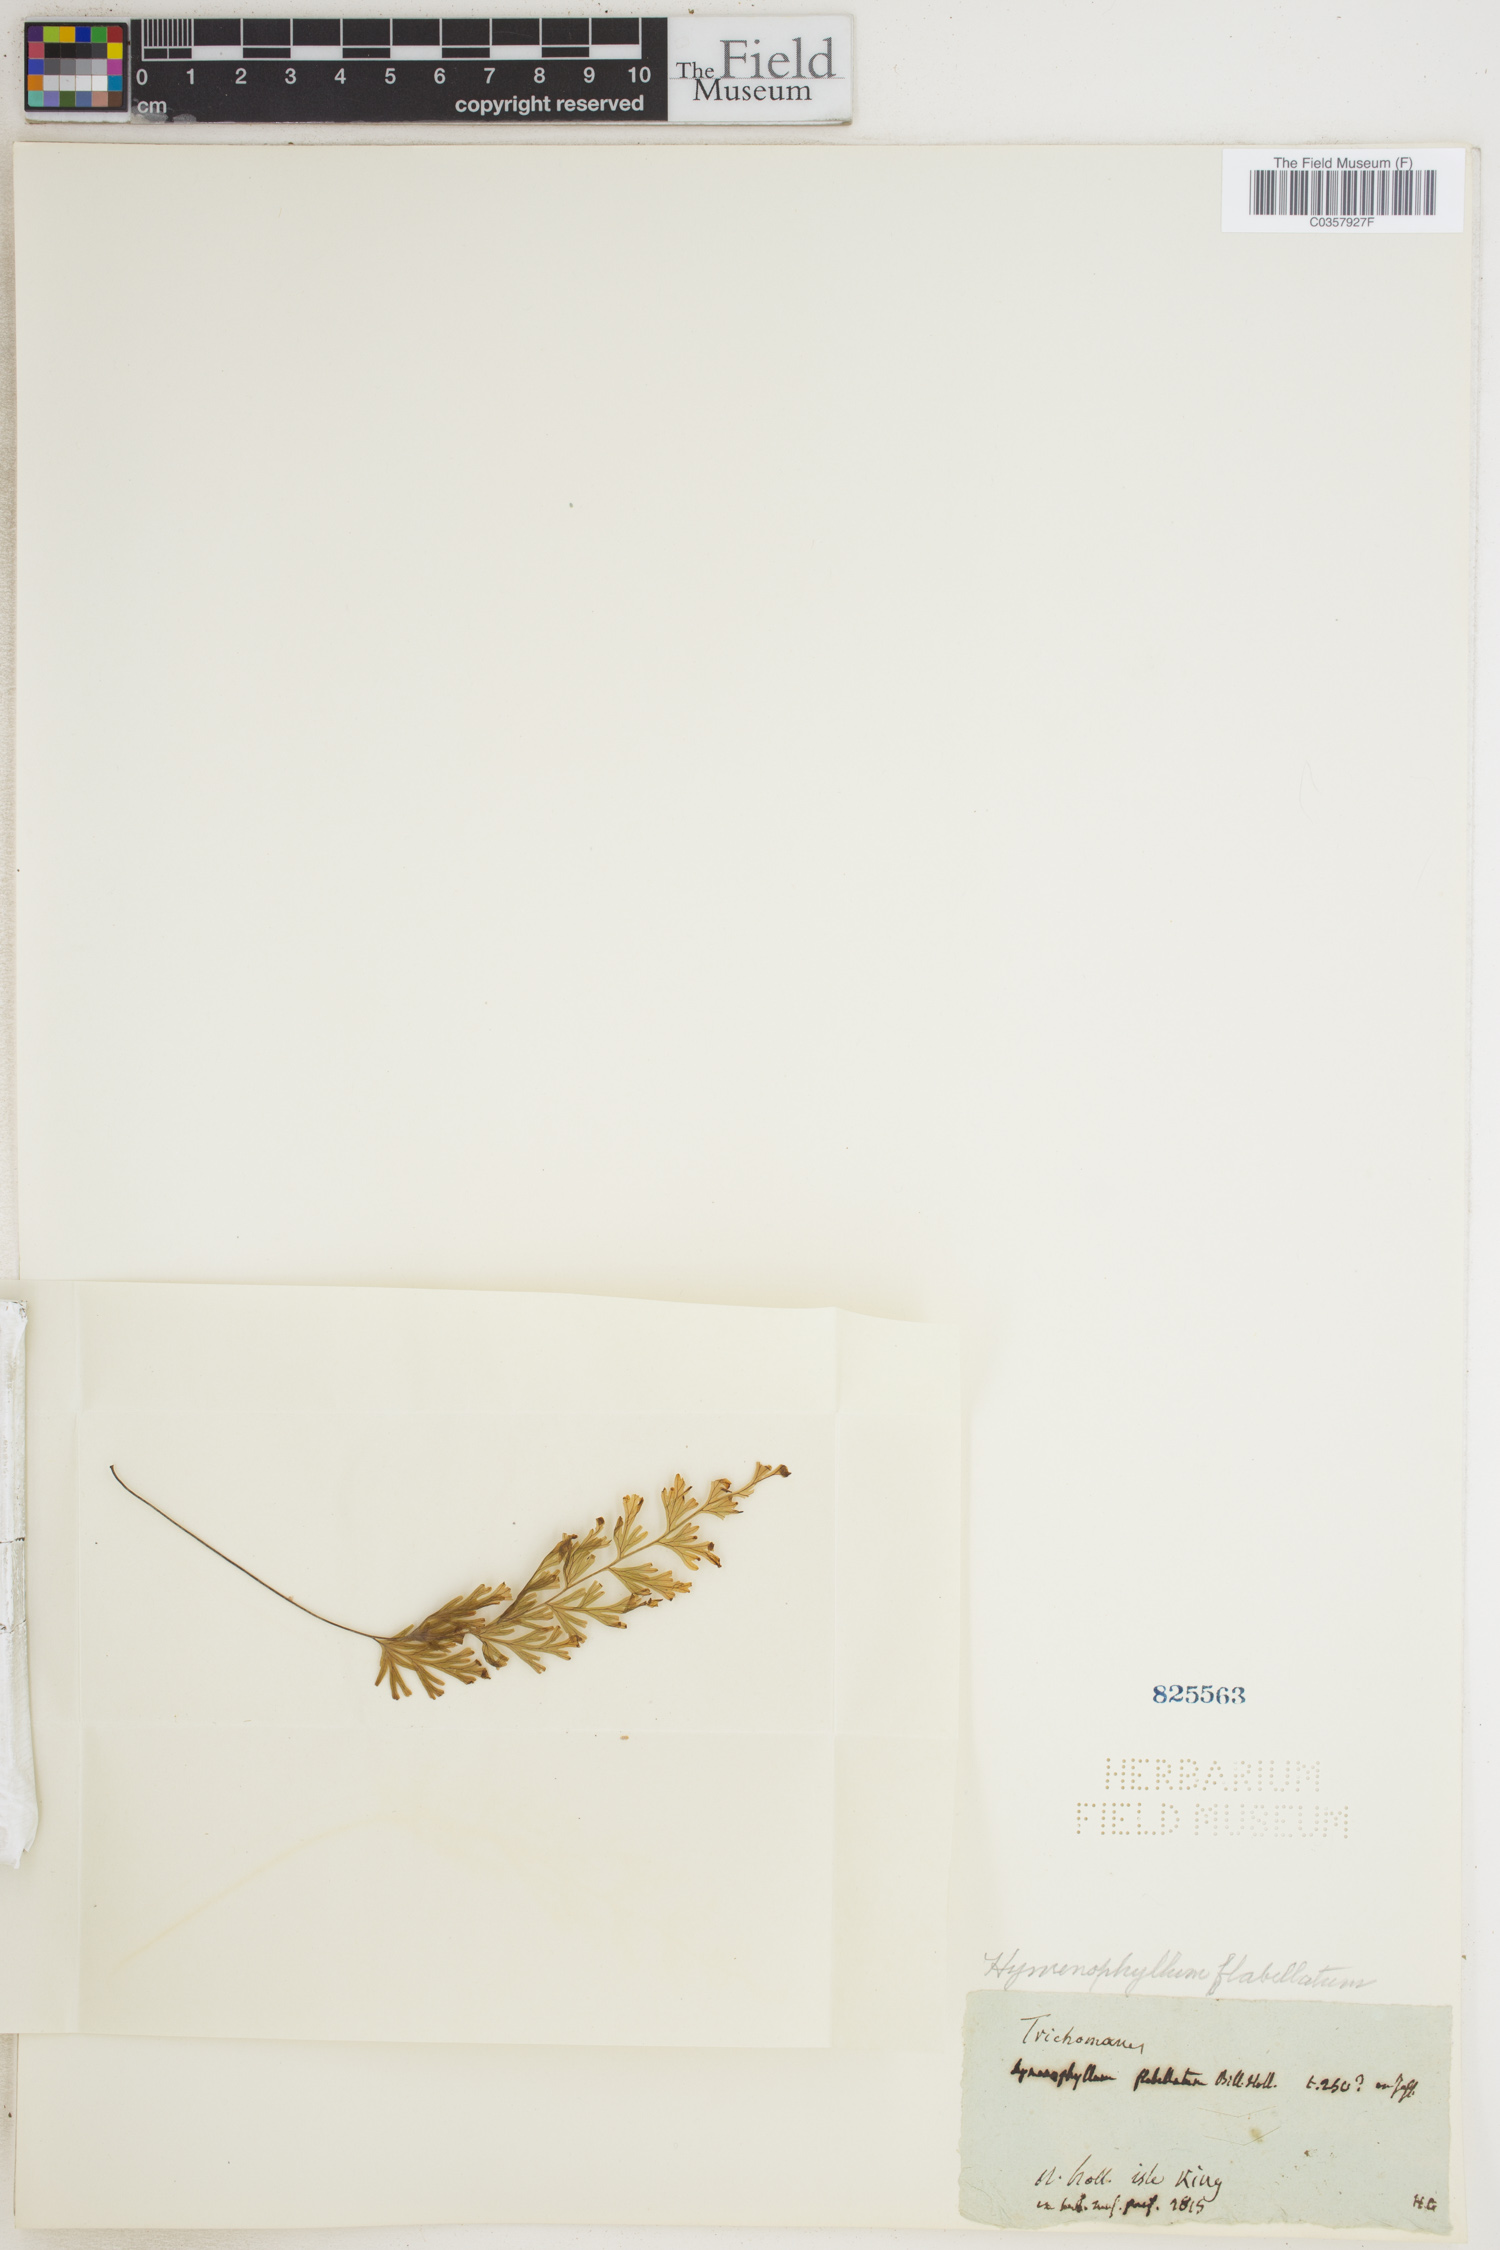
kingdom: Plantae
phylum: Tracheophyta
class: Polypodiopsida
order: Hymenophyllales
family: Hymenophyllaceae
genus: Hymenophyllum
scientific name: Hymenophyllum flabellatum
